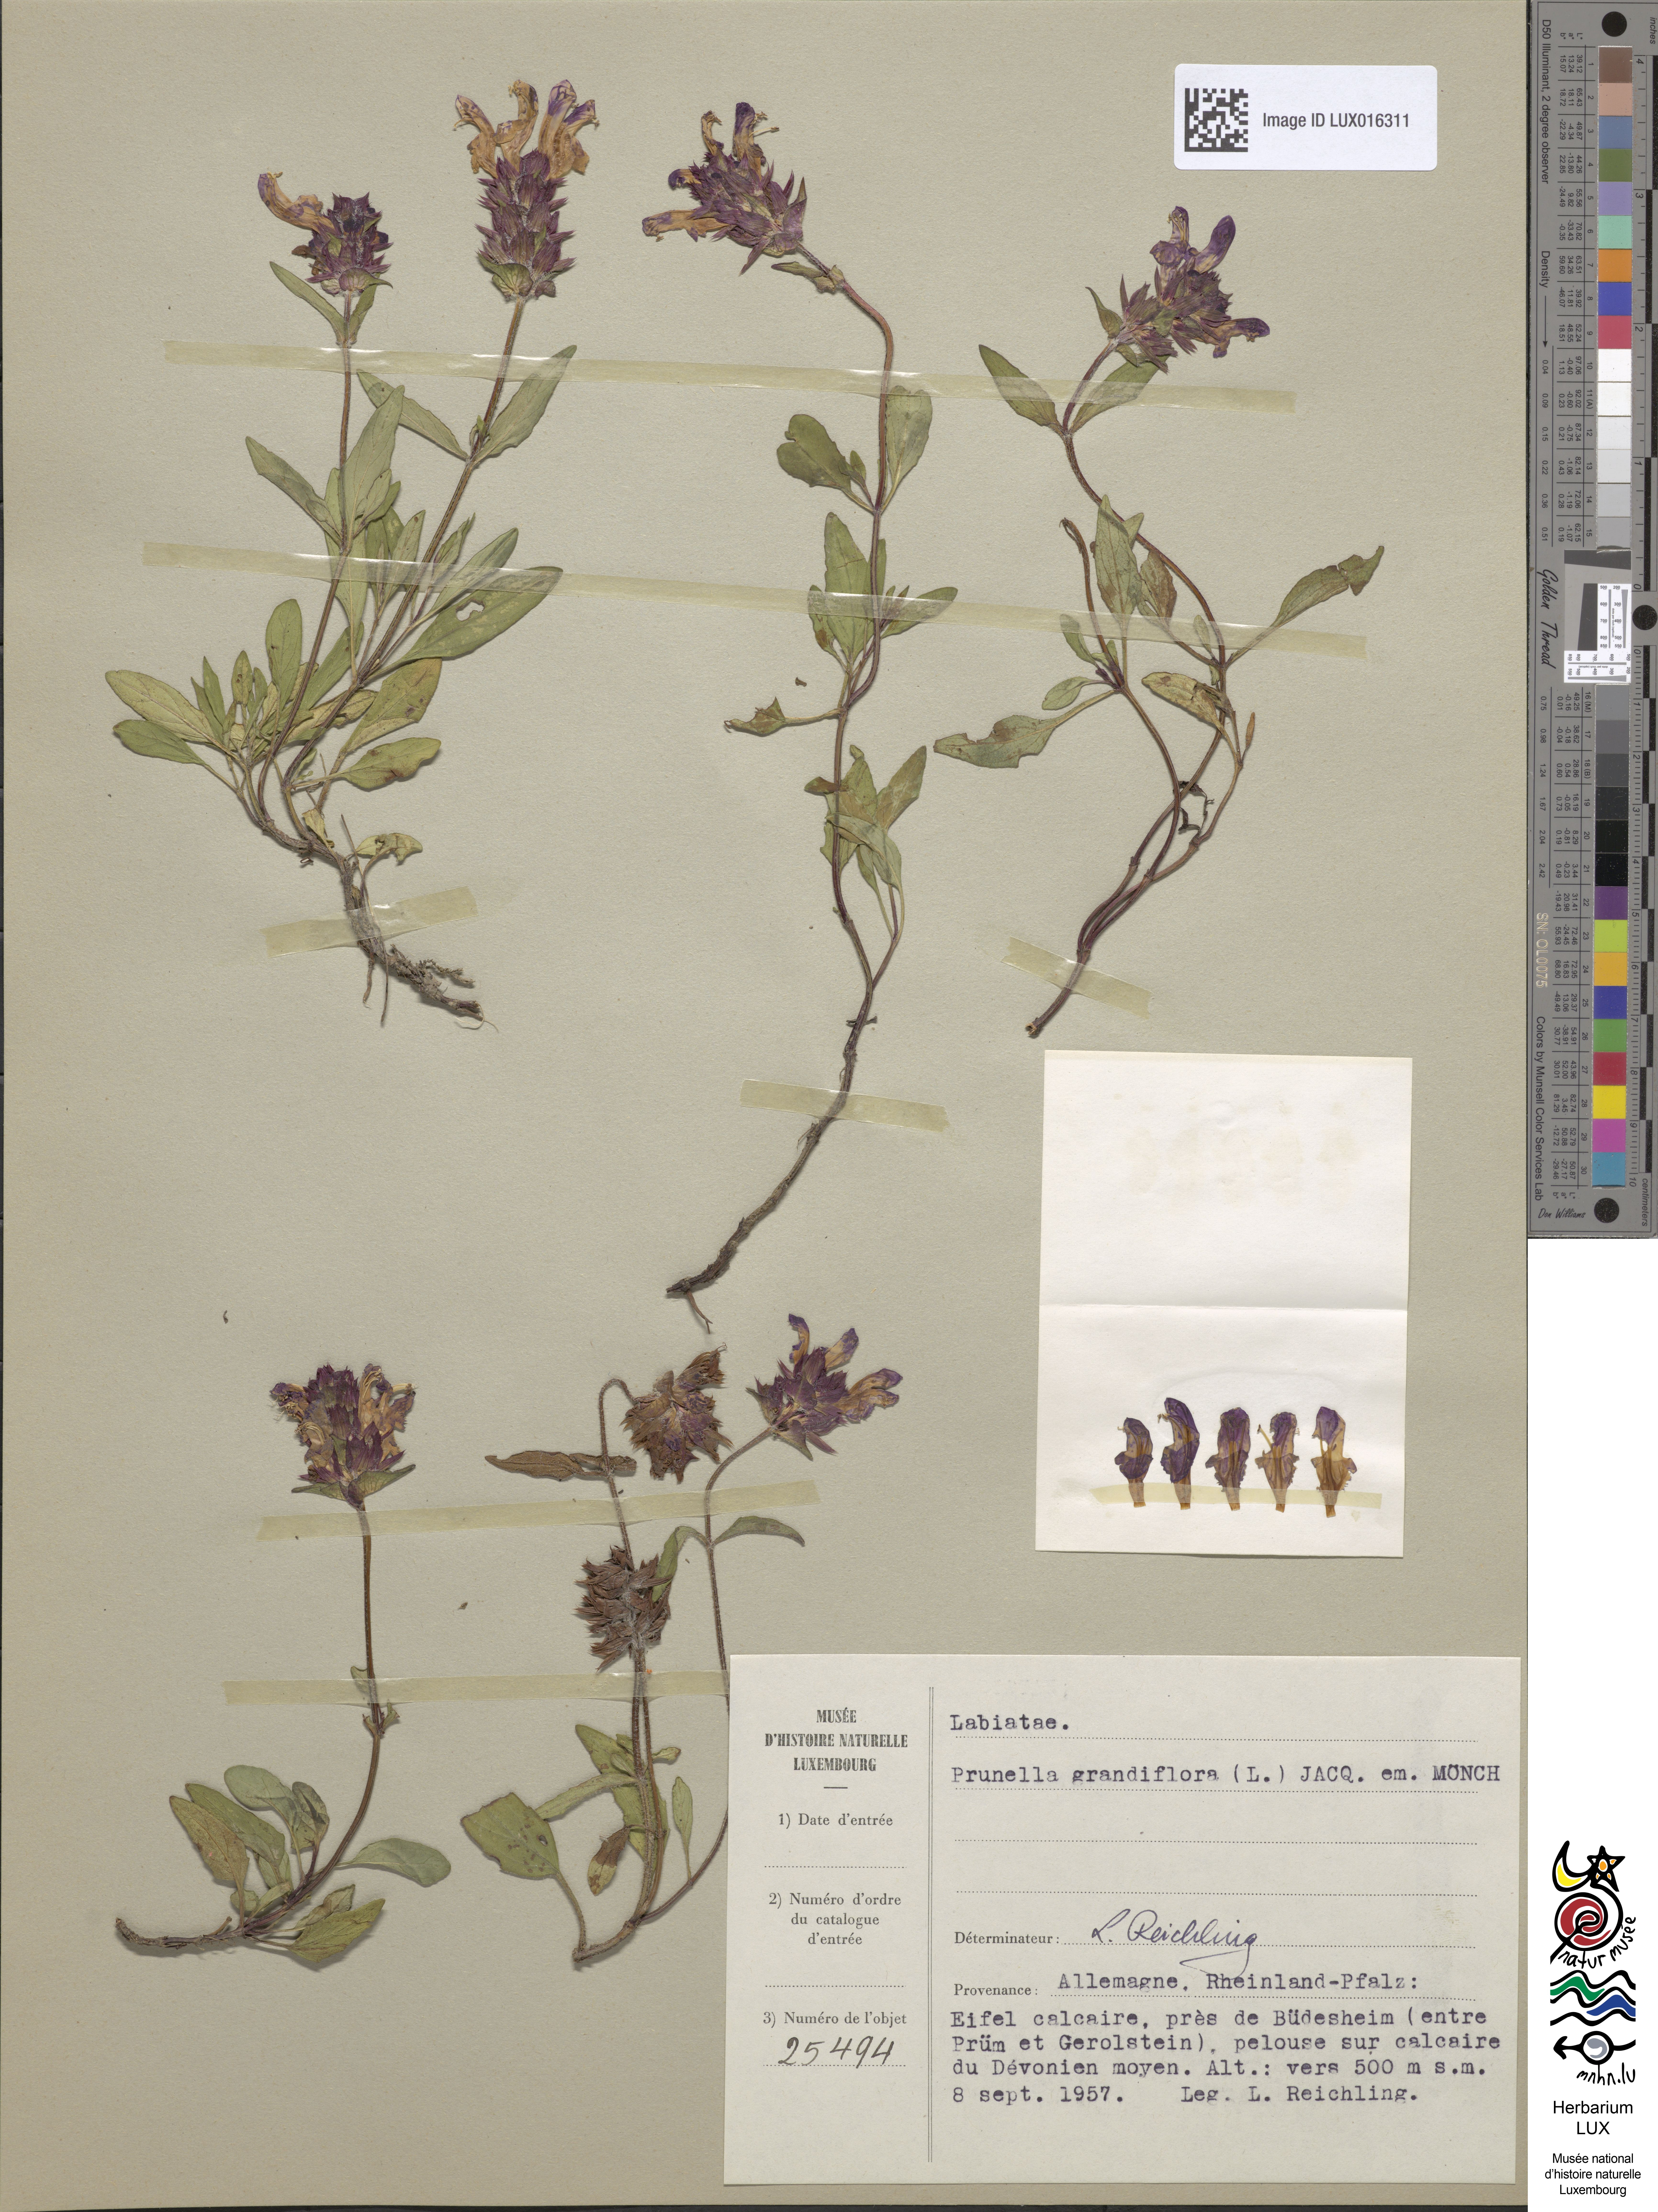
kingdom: Plantae
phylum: Tracheophyta
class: Magnoliopsida
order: Lamiales
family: Lamiaceae
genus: Prunella
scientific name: Prunella grandiflora
